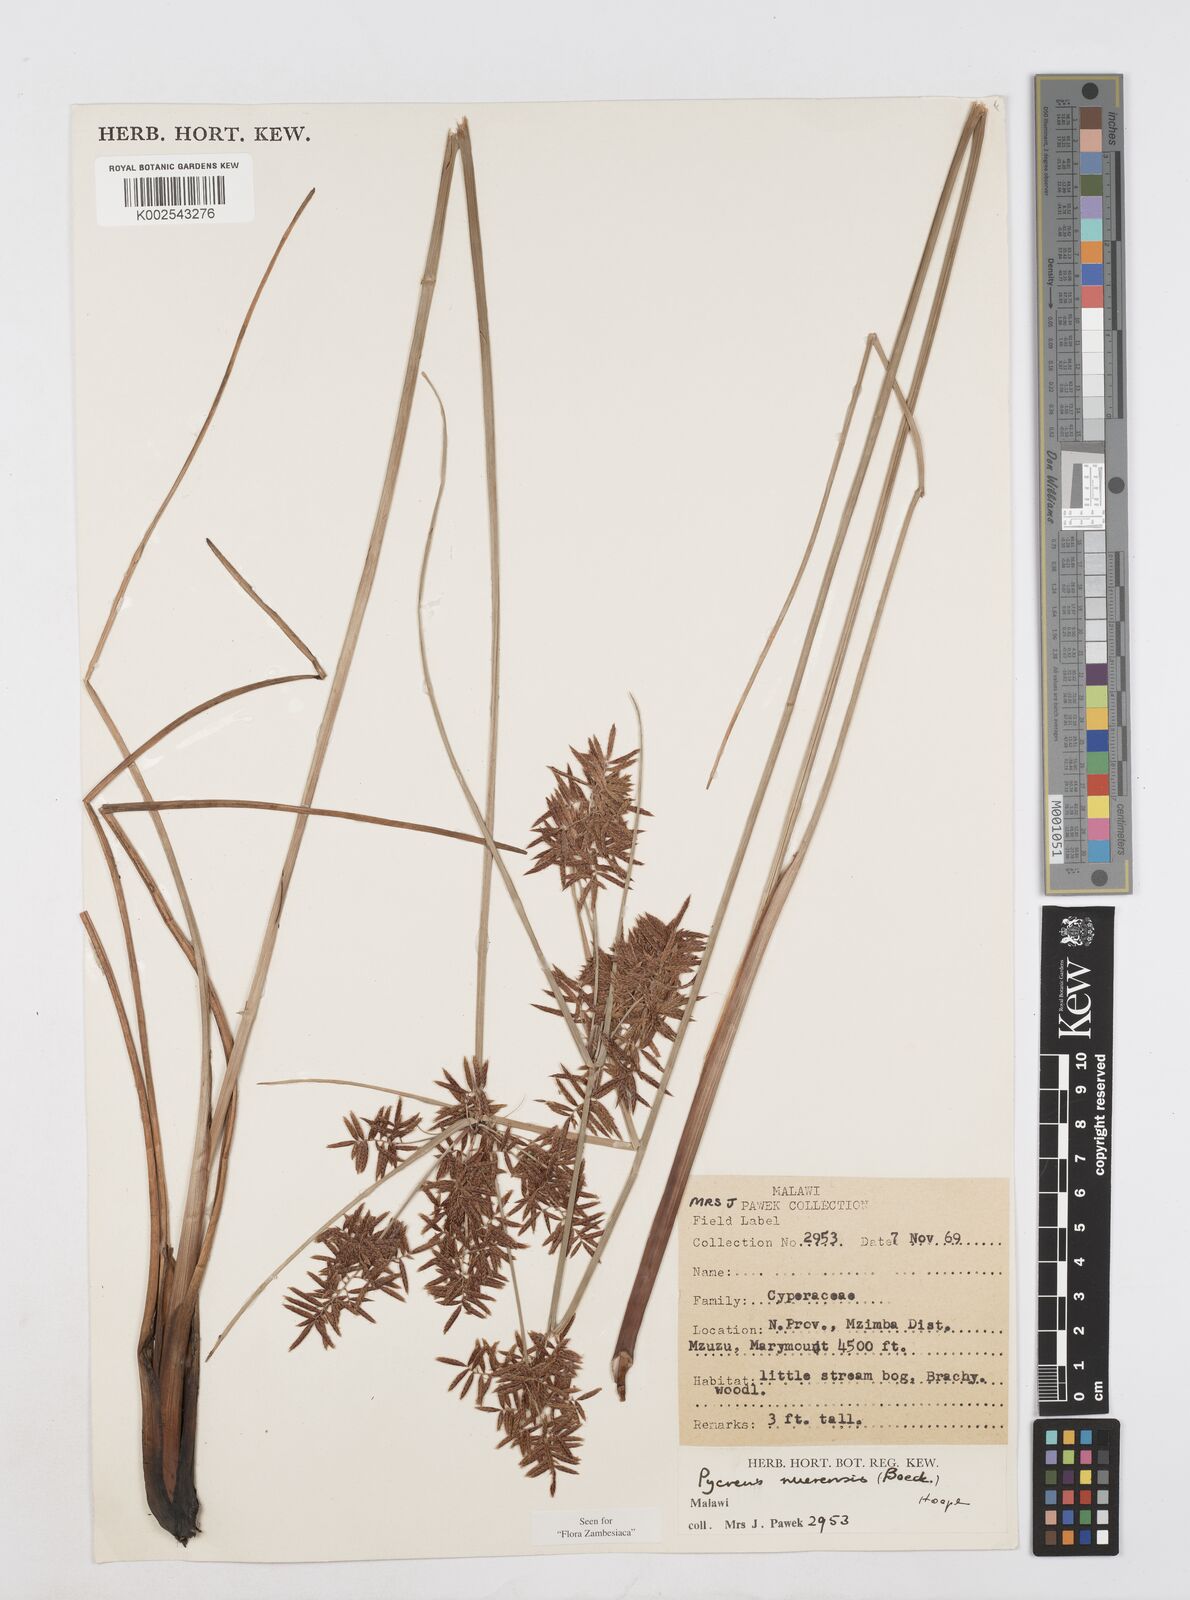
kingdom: Plantae
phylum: Tracheophyta
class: Liliopsida
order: Poales
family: Cyperaceae
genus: Cyperus
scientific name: Cyperus nuerensis
